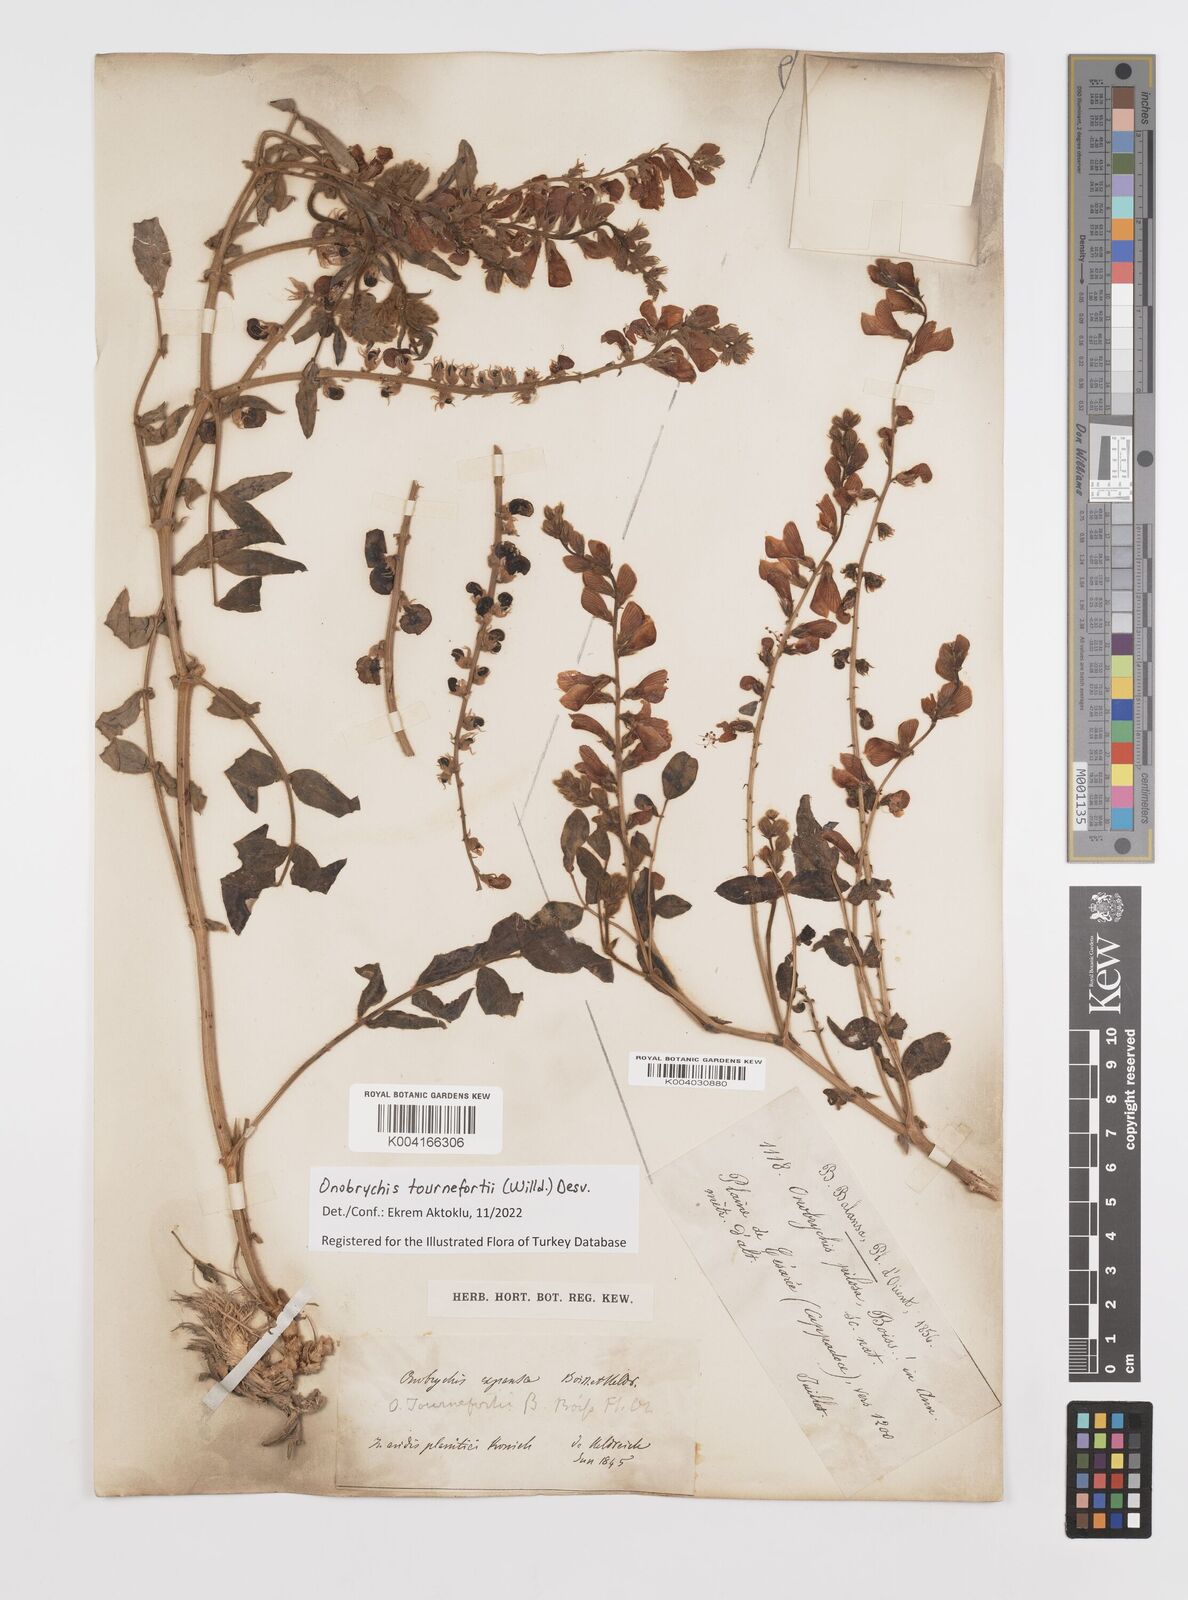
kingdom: Plantae
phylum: Tracheophyta
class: Magnoliopsida
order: Fabales
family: Fabaceae
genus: Onobrychis
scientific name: Onobrychis tournefortii
